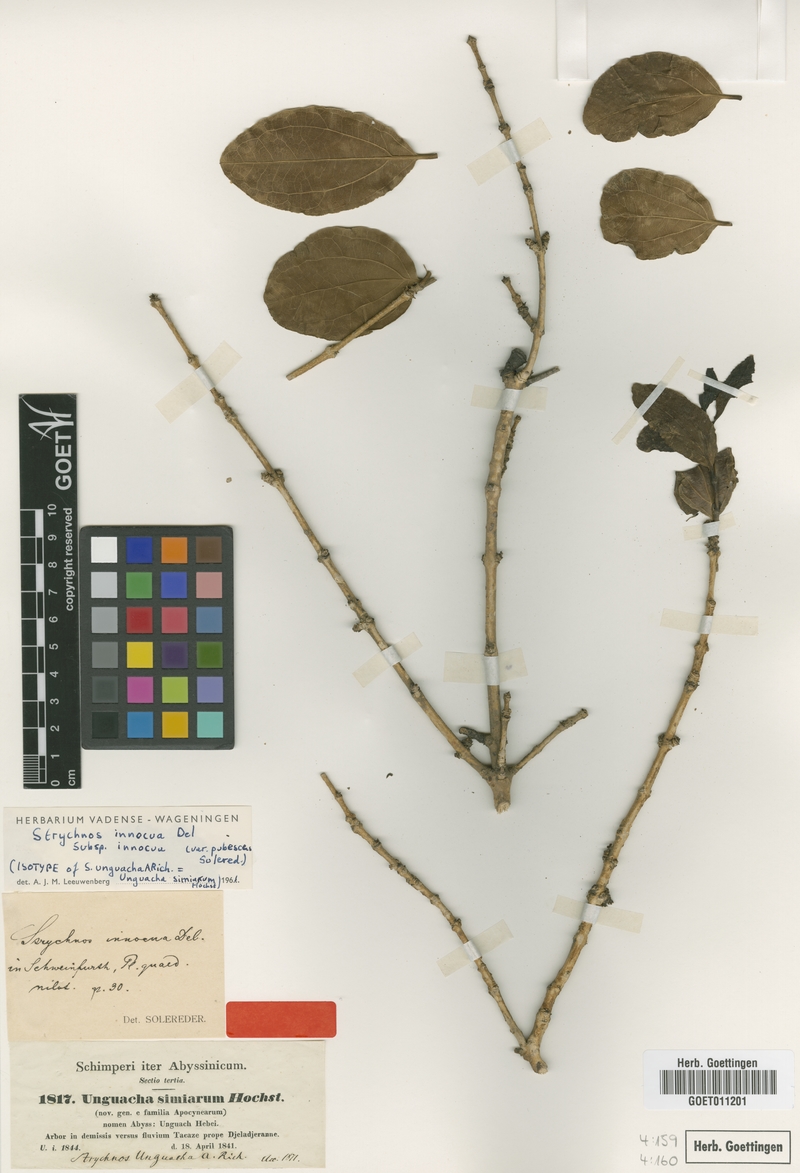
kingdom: Plantae
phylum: Tracheophyta
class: Magnoliopsida
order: Gentianales
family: Loganiaceae
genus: Strychnos
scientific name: Strychnos innocua
